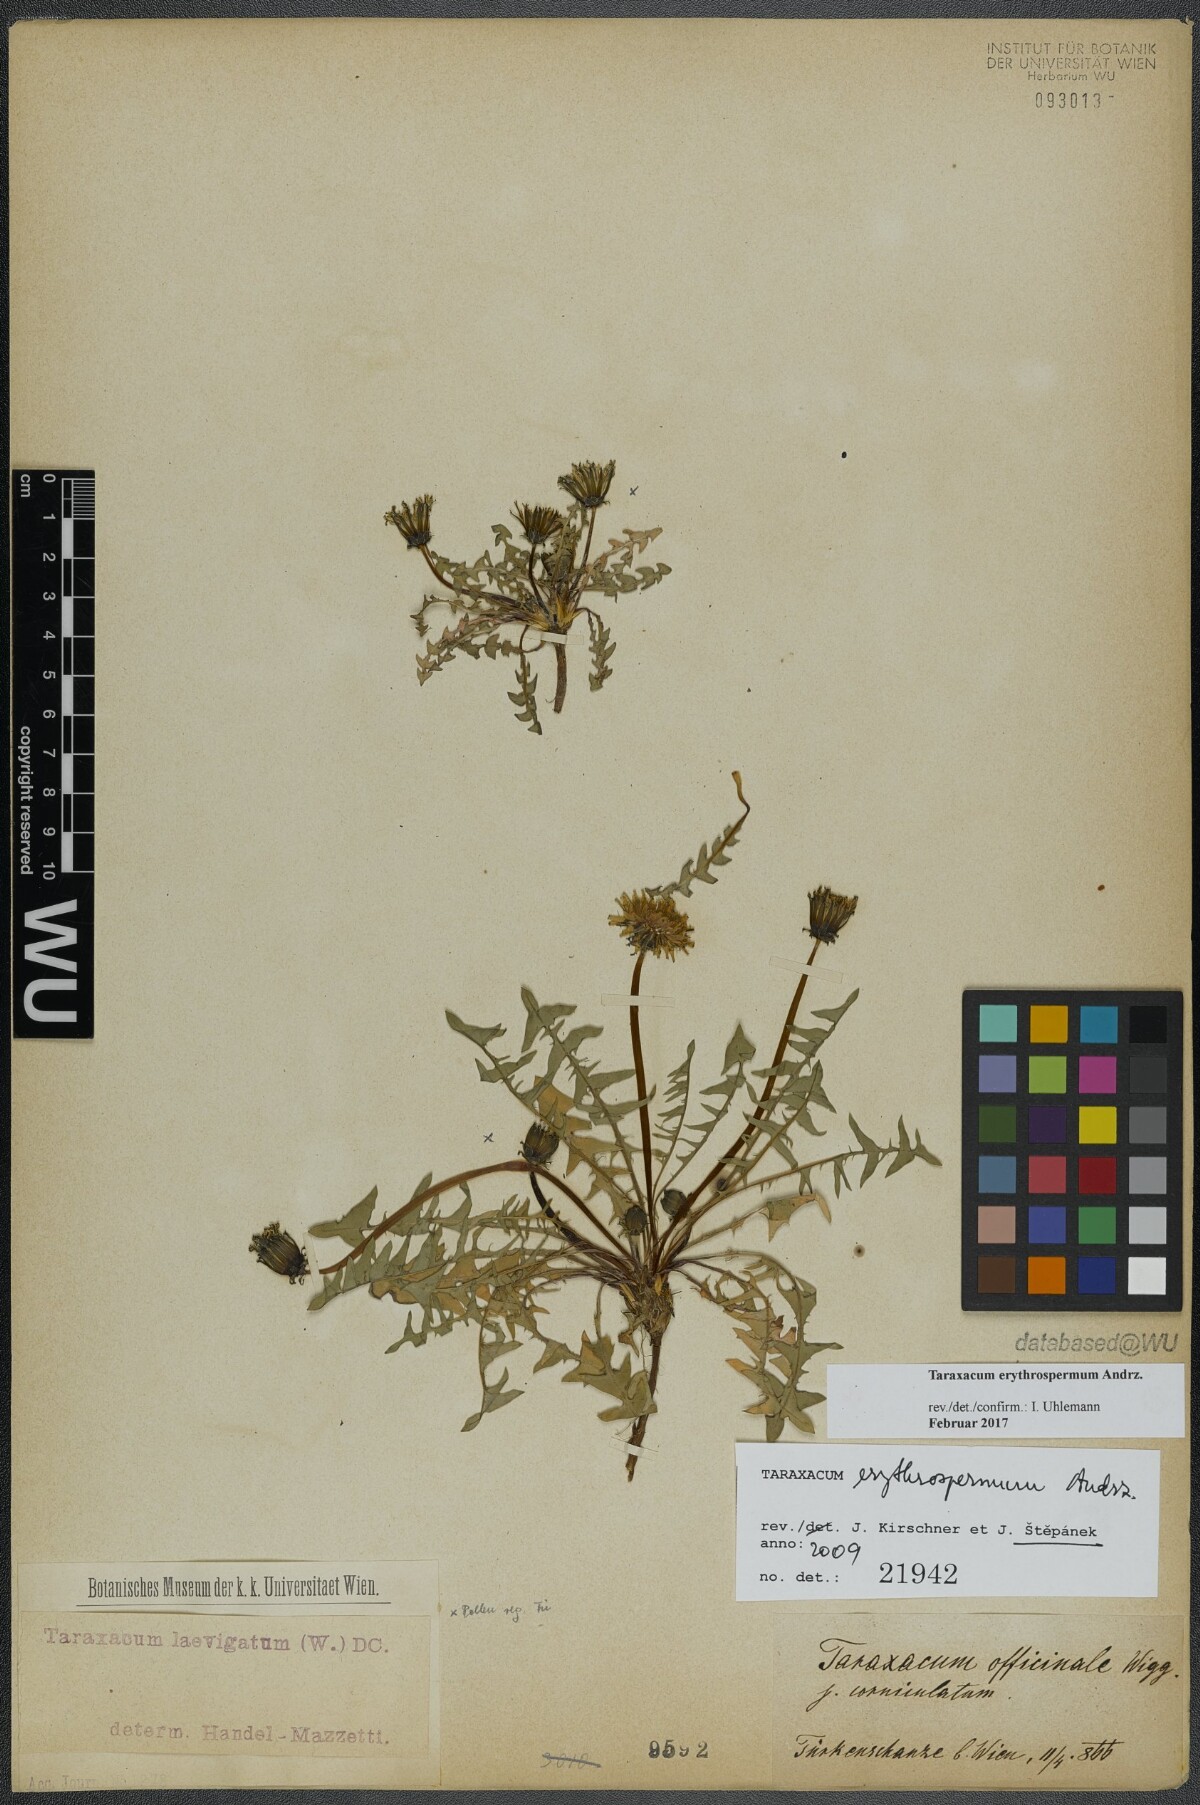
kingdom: Plantae
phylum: Tracheophyta
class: Magnoliopsida
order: Asterales
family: Asteraceae
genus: Taraxacum
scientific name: Taraxacum erythrospermum
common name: Rock dandelion
